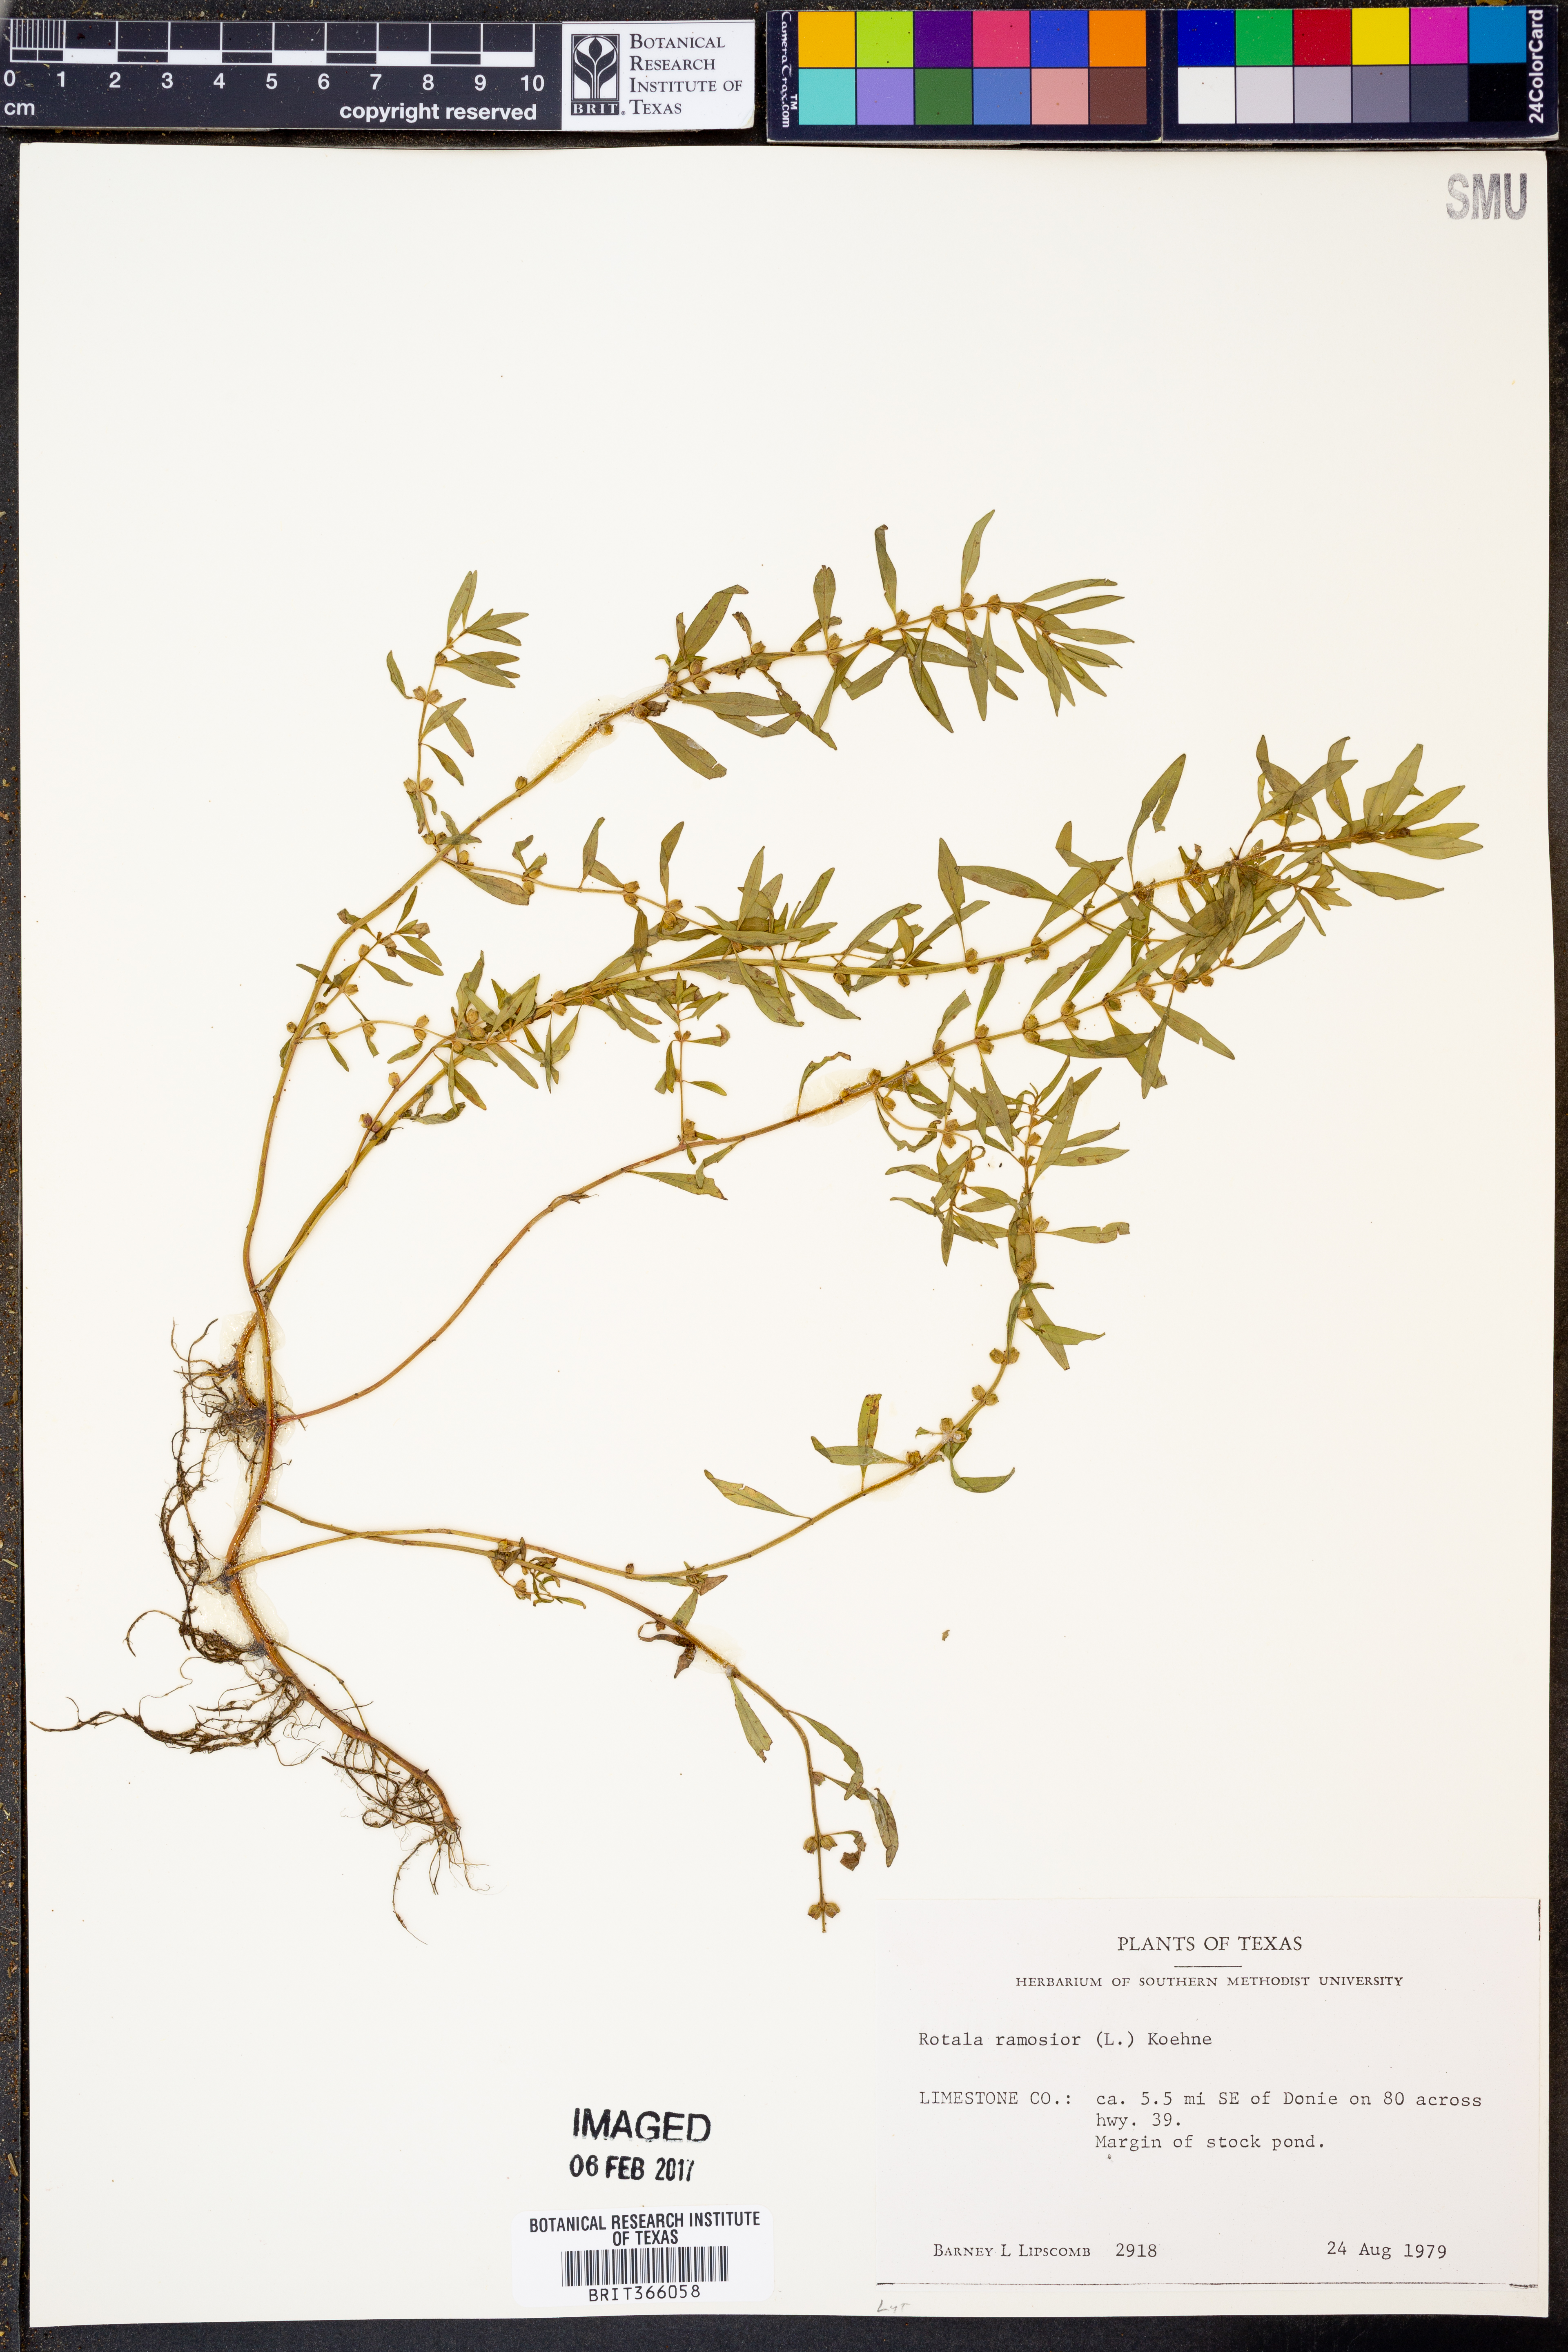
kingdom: Plantae
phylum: Tracheophyta
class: Magnoliopsida
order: Myrtales
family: Lythraceae
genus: Rotala
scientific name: Rotala ramosior
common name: Lowland rotala
